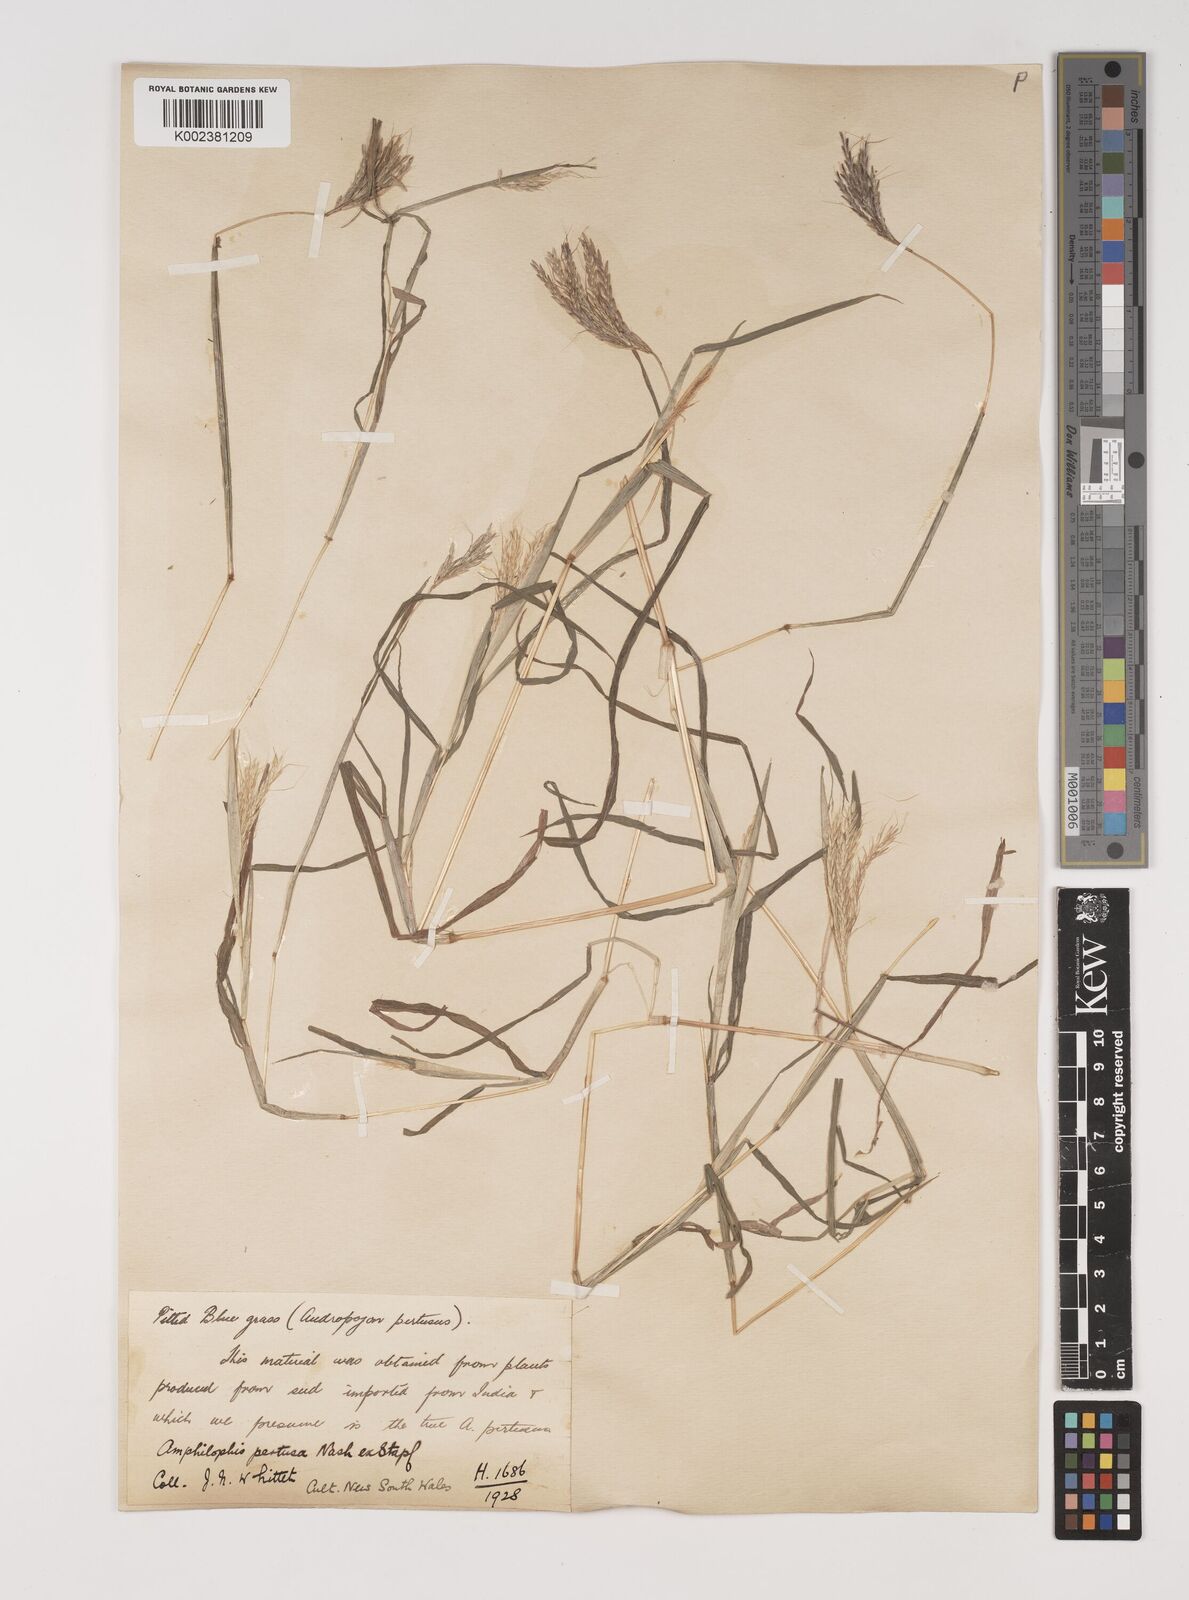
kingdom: Plantae
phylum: Tracheophyta
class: Liliopsida
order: Poales
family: Poaceae
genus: Bothriochloa
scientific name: Bothriochloa pertusa
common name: Pitted beardgrass
